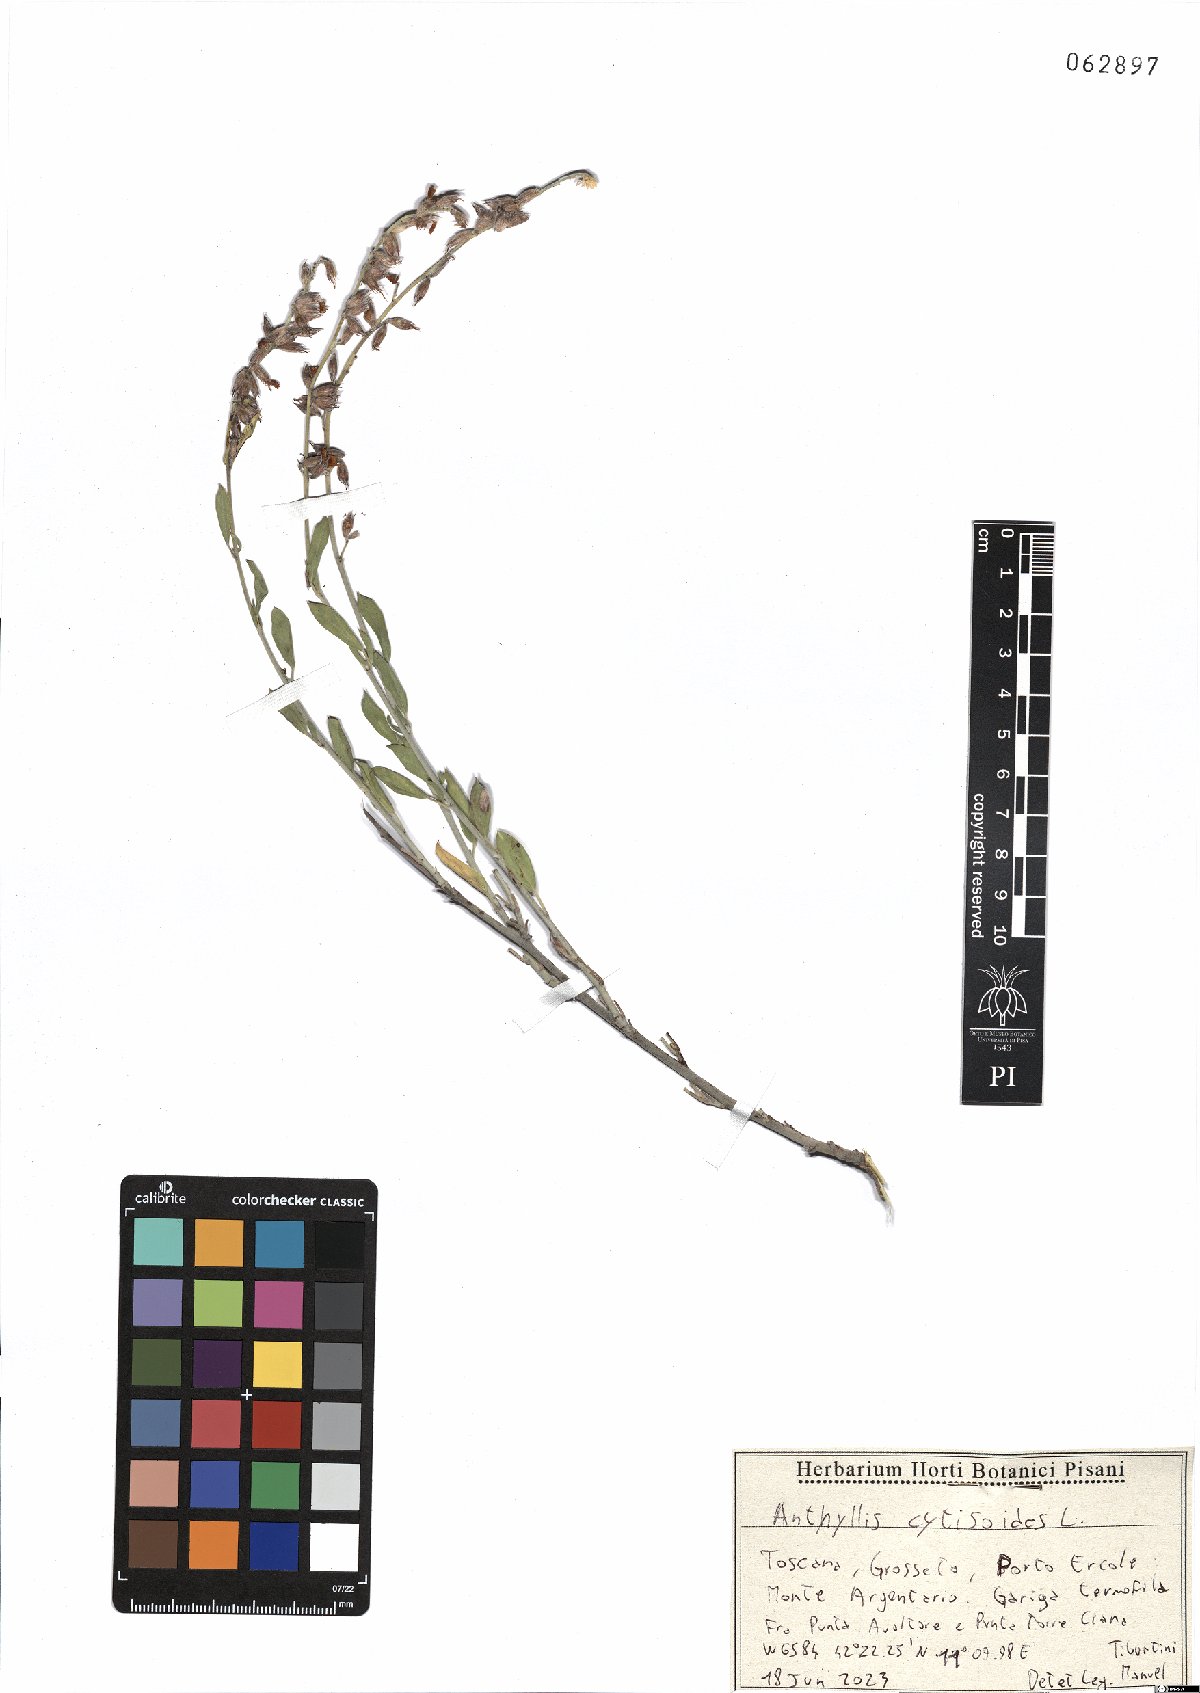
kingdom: Plantae
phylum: Tracheophyta
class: Magnoliopsida
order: Fabales
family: Fabaceae
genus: Anthyllis
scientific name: Anthyllis cytisoides
